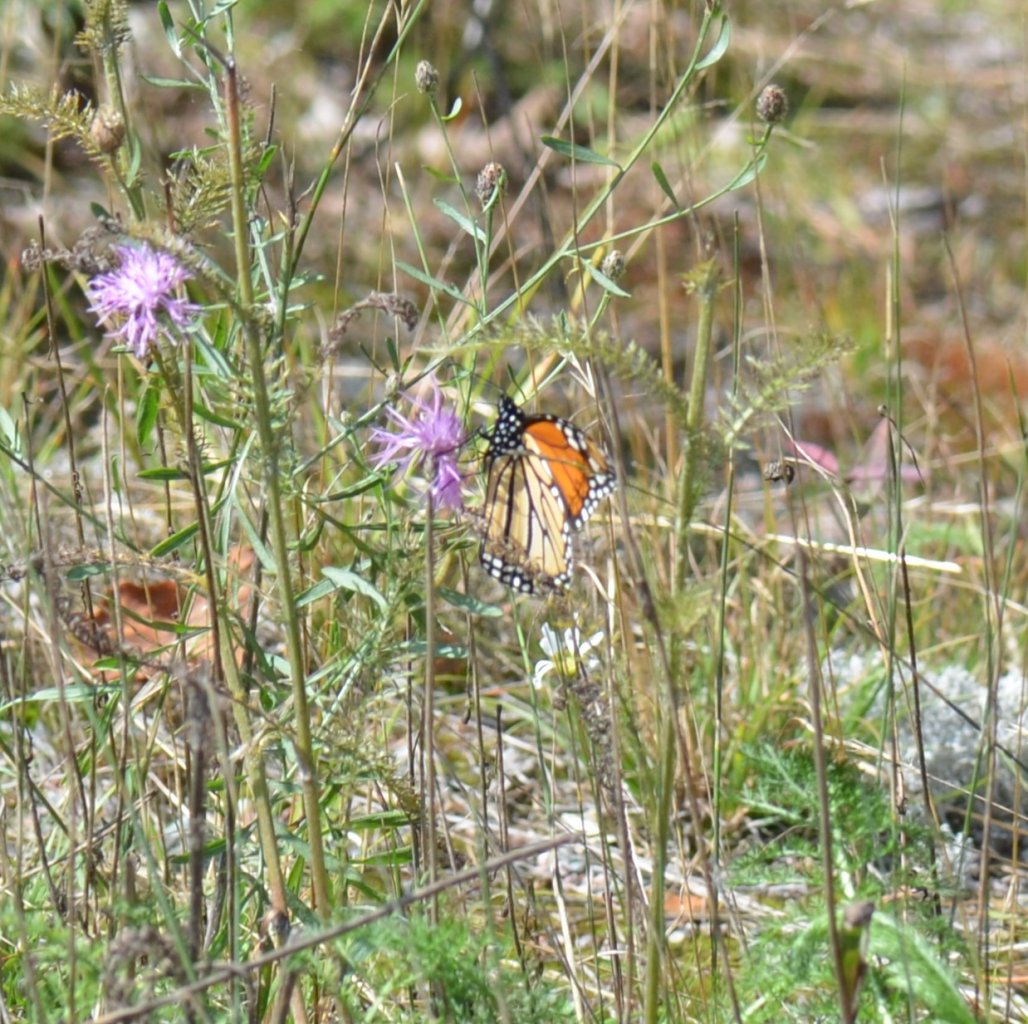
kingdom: Animalia
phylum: Arthropoda
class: Insecta
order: Lepidoptera
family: Nymphalidae
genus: Danaus
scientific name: Danaus plexippus
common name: Monarch
